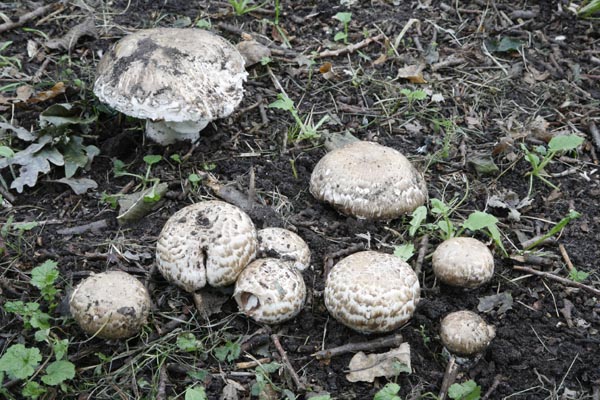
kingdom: Fungi
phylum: Basidiomycota
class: Agaricomycetes
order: Agaricales
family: Agaricaceae
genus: Agaricus
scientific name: Agaricus subperonatus
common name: knippe-champignon
